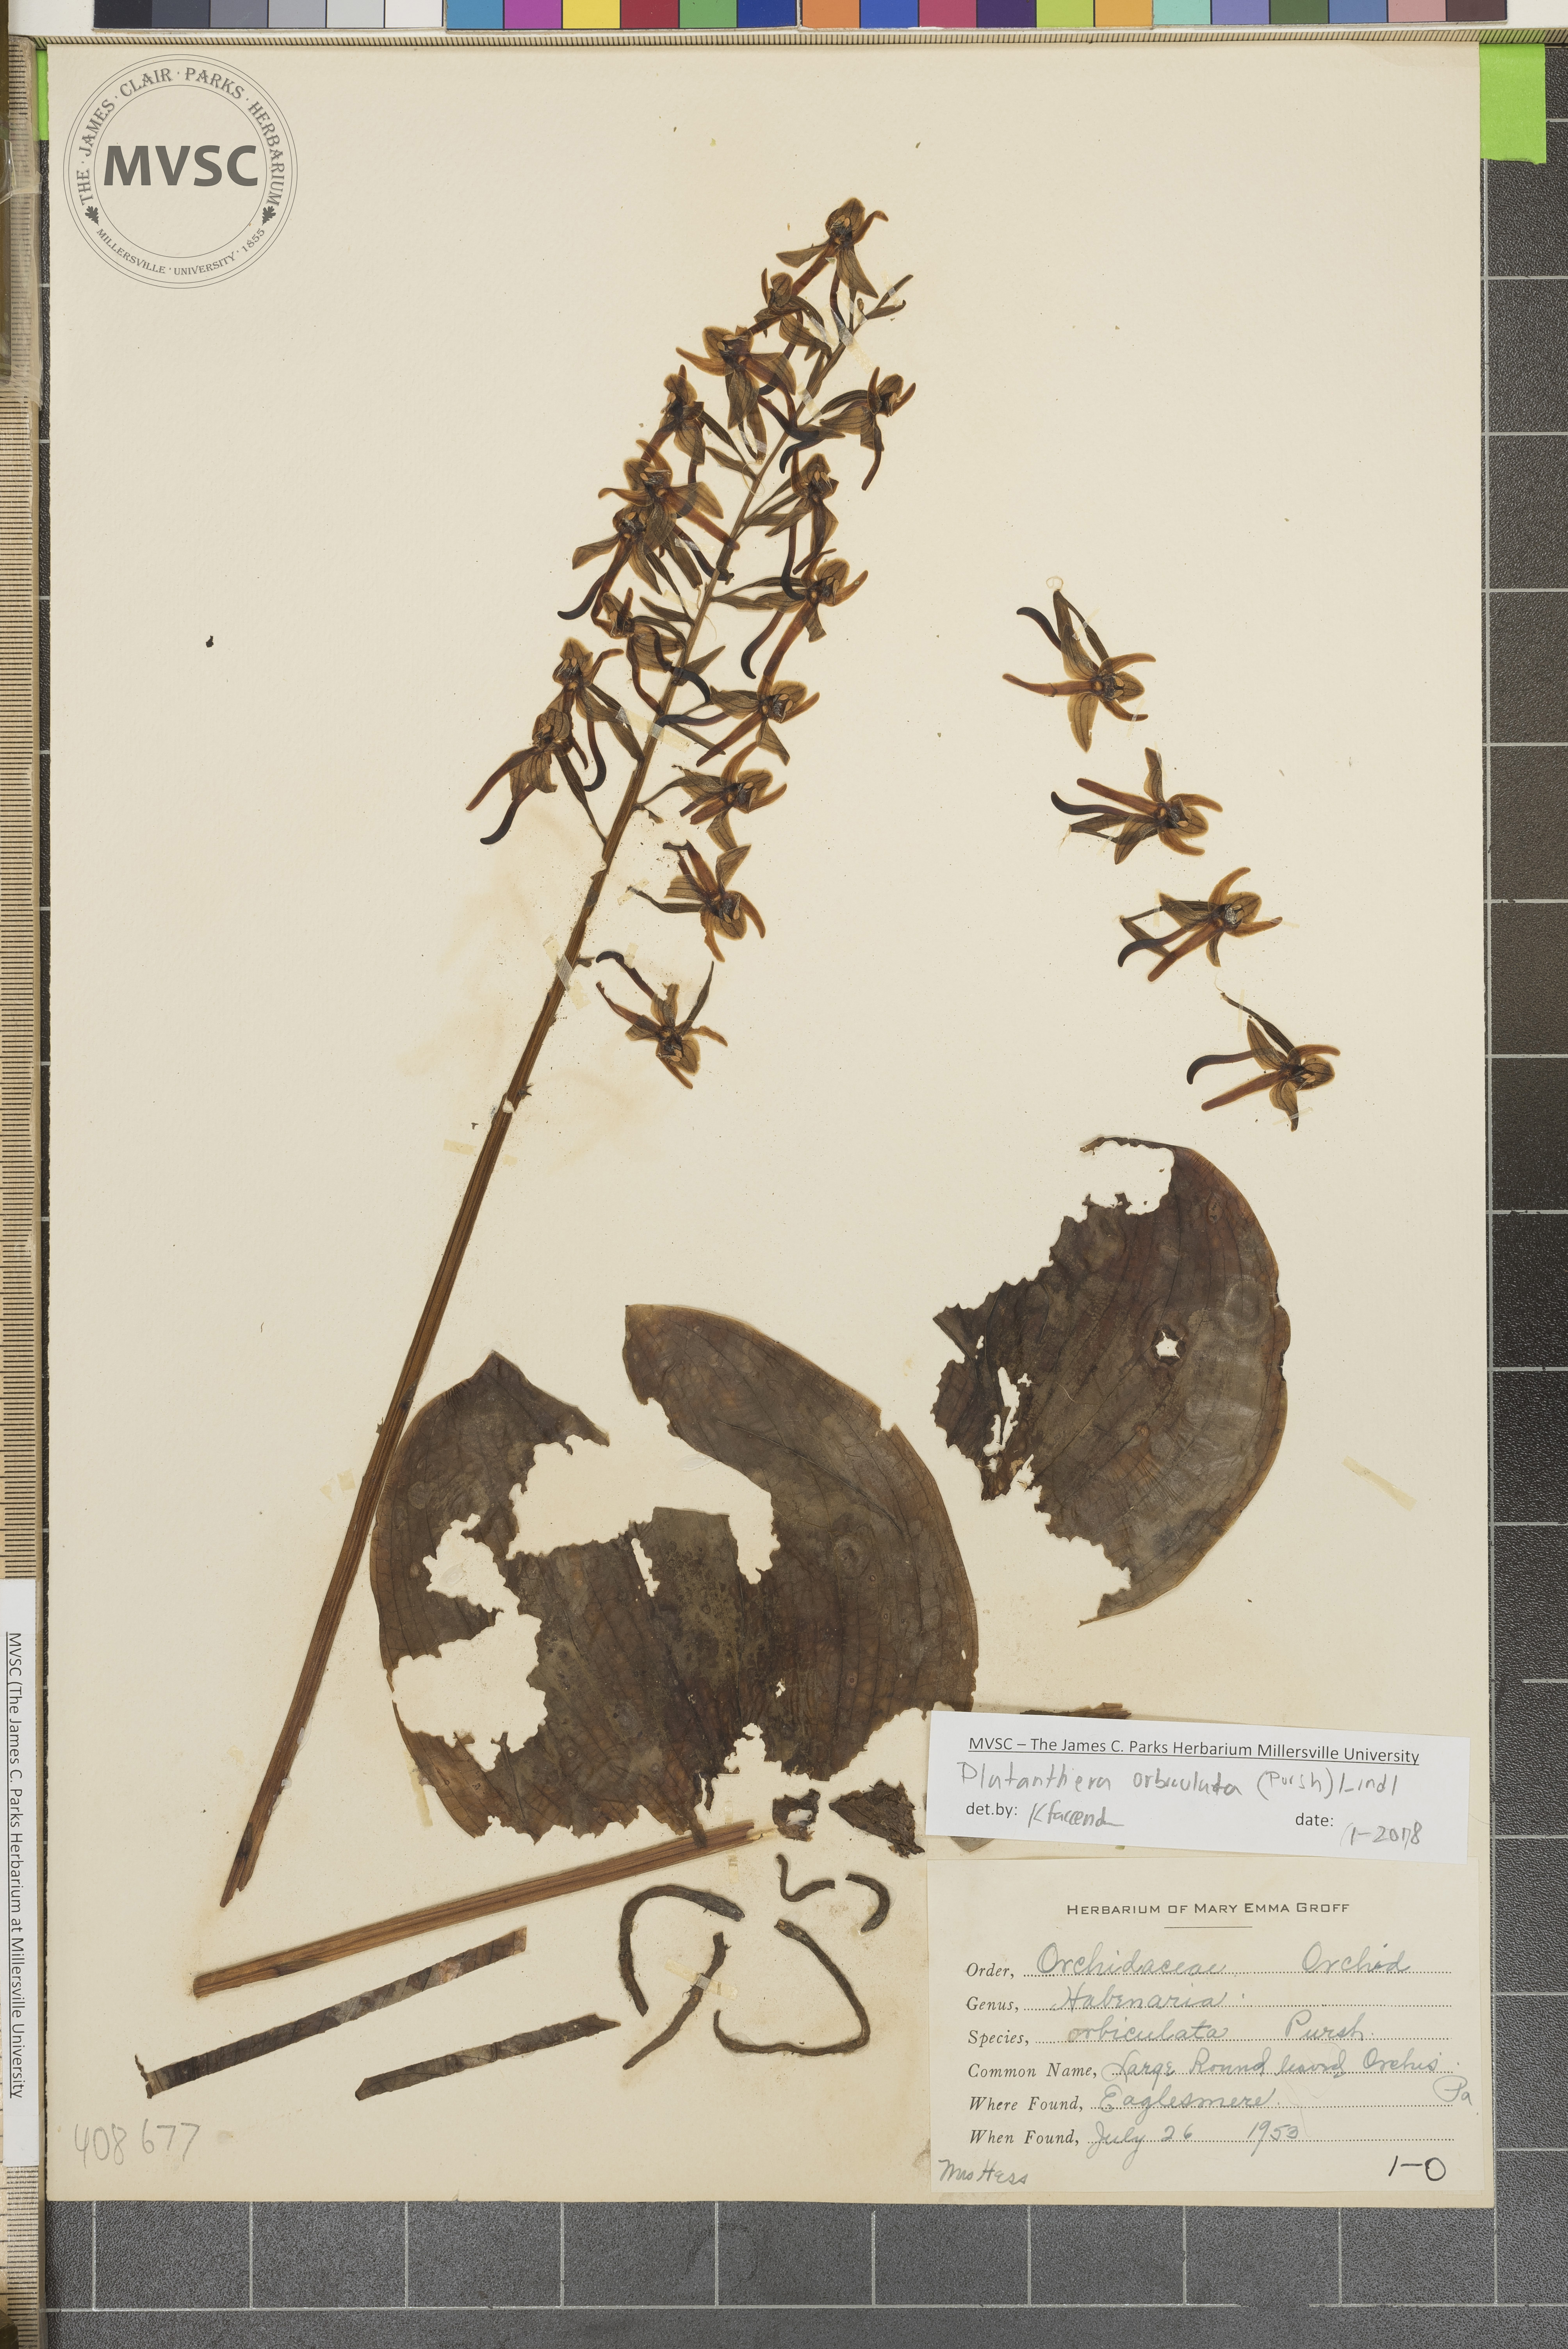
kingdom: Plantae
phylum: Tracheophyta
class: Liliopsida
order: Asparagales
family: Orchidaceae
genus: Platanthera
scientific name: Platanthera orbiculata
